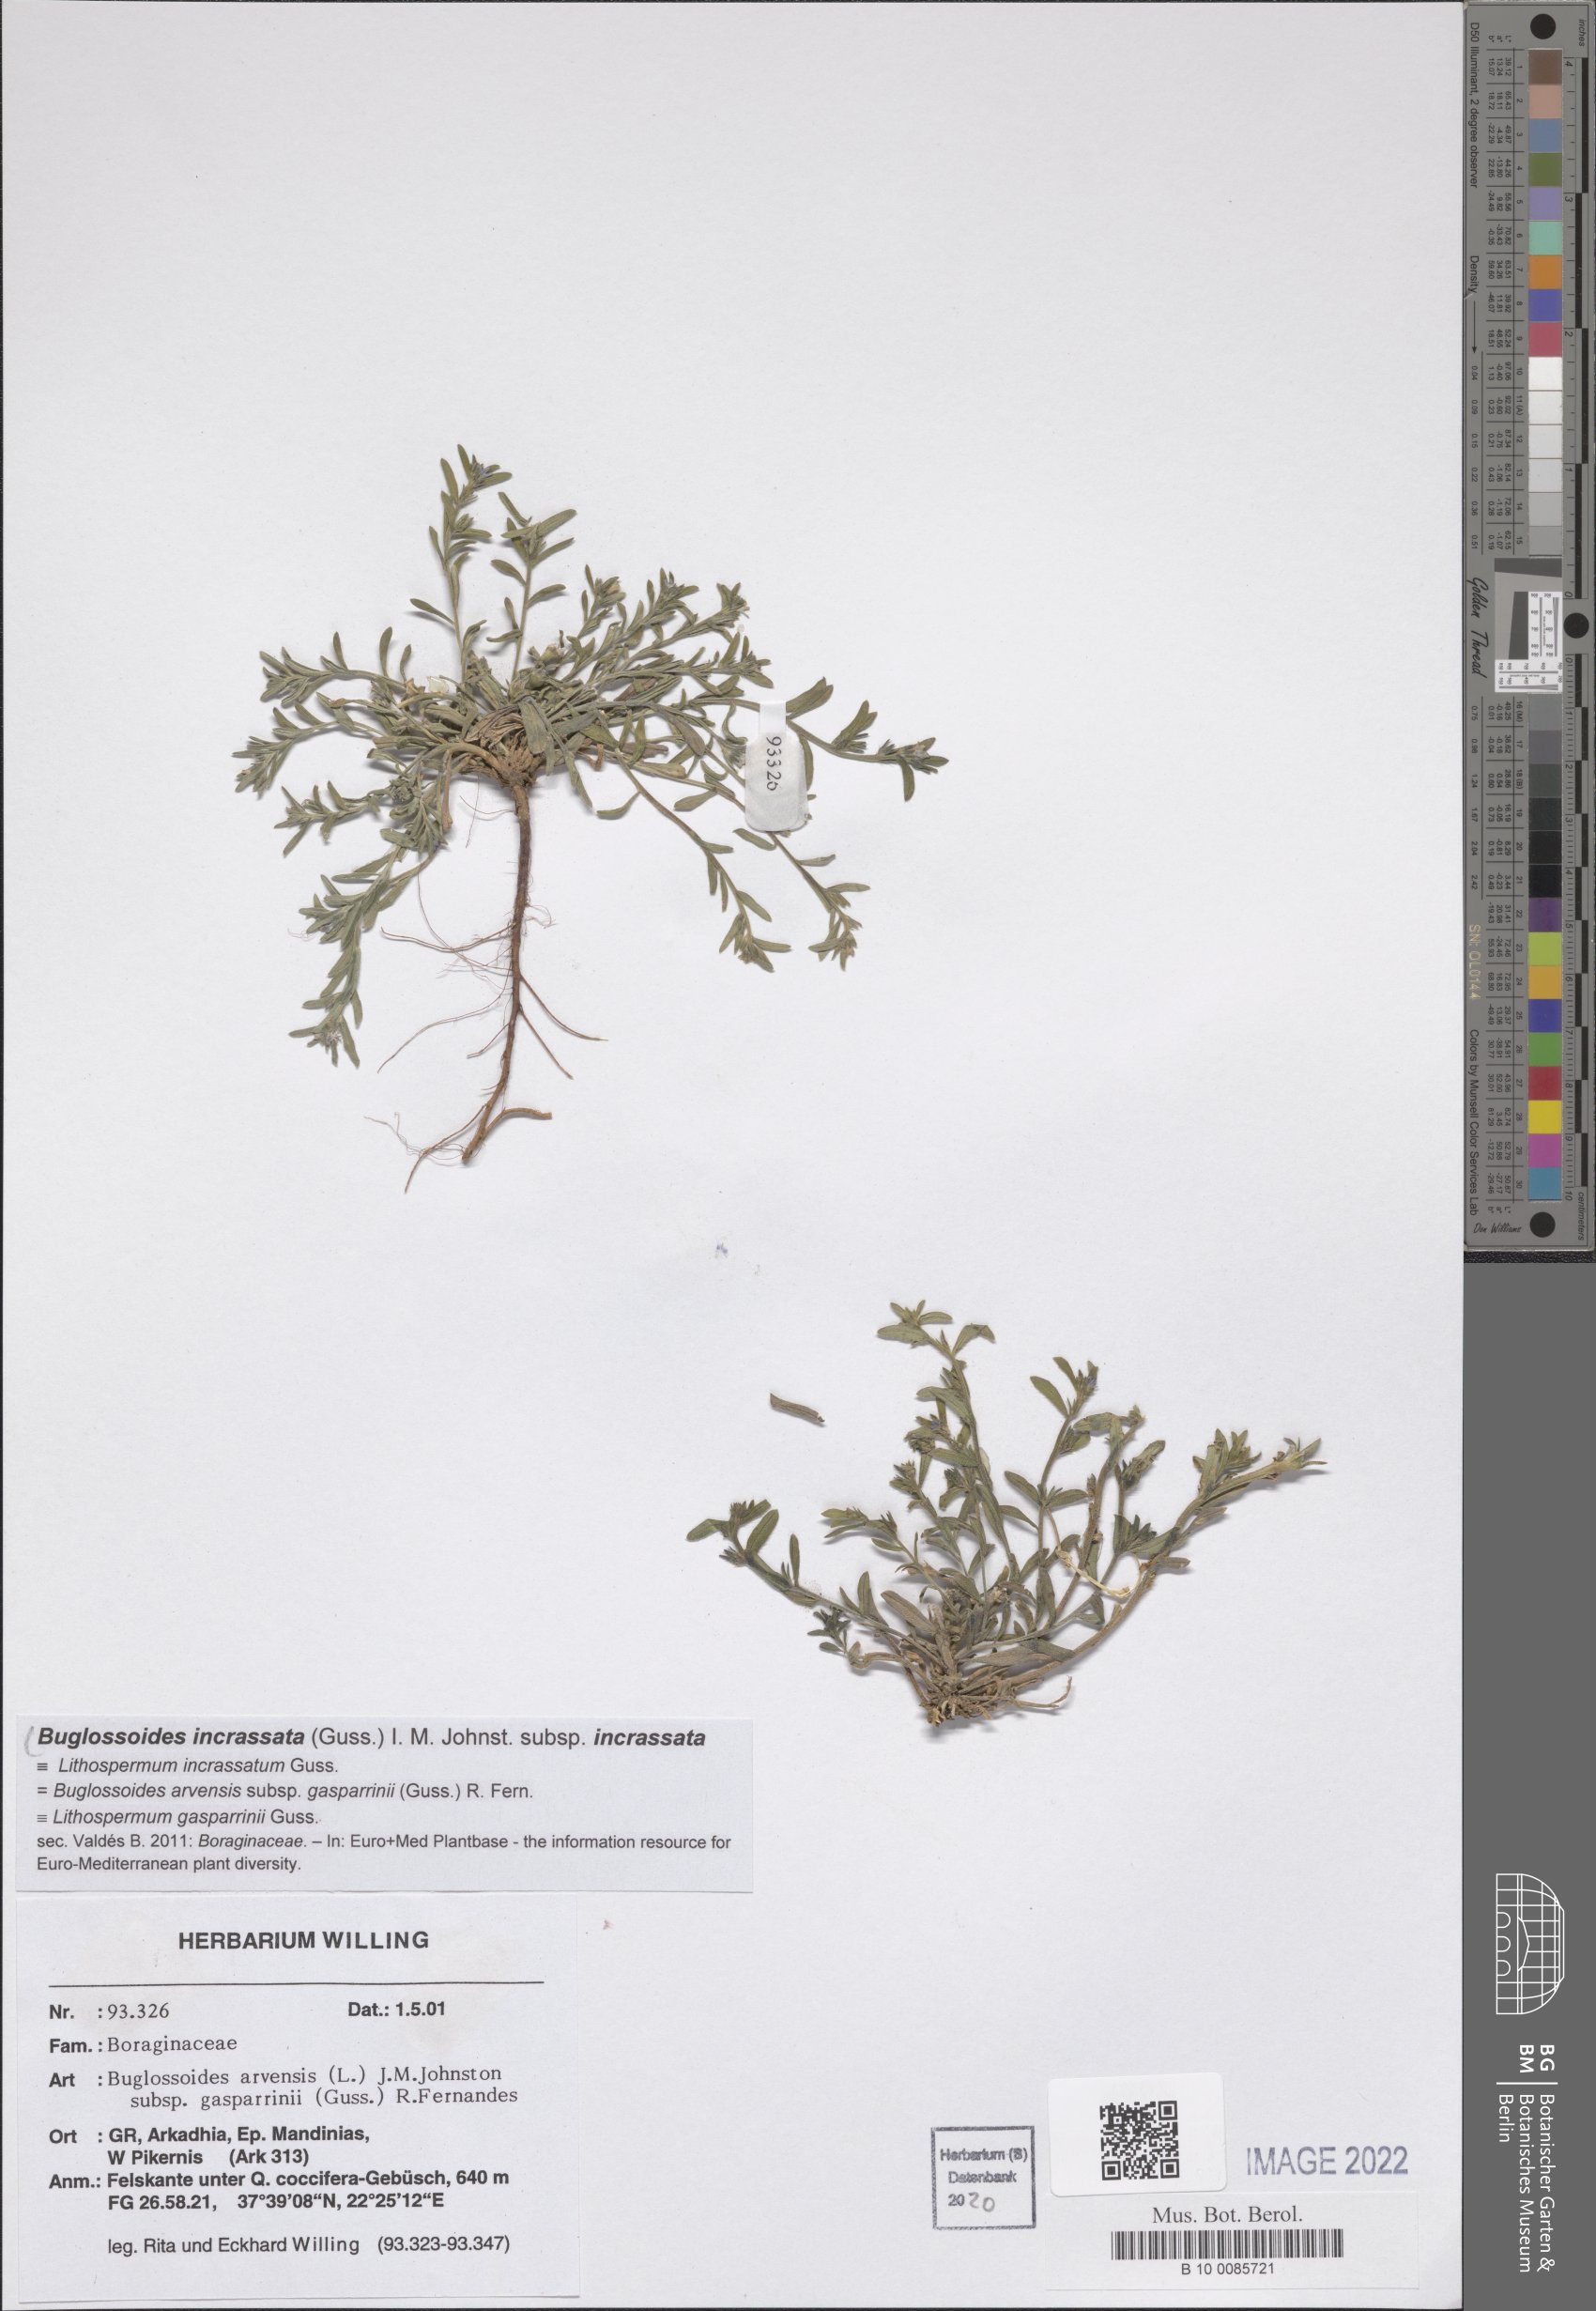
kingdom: Plantae
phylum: Tracheophyta
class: Magnoliopsida
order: Boraginales
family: Boraginaceae
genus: Buglossoides
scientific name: Buglossoides incrassata
